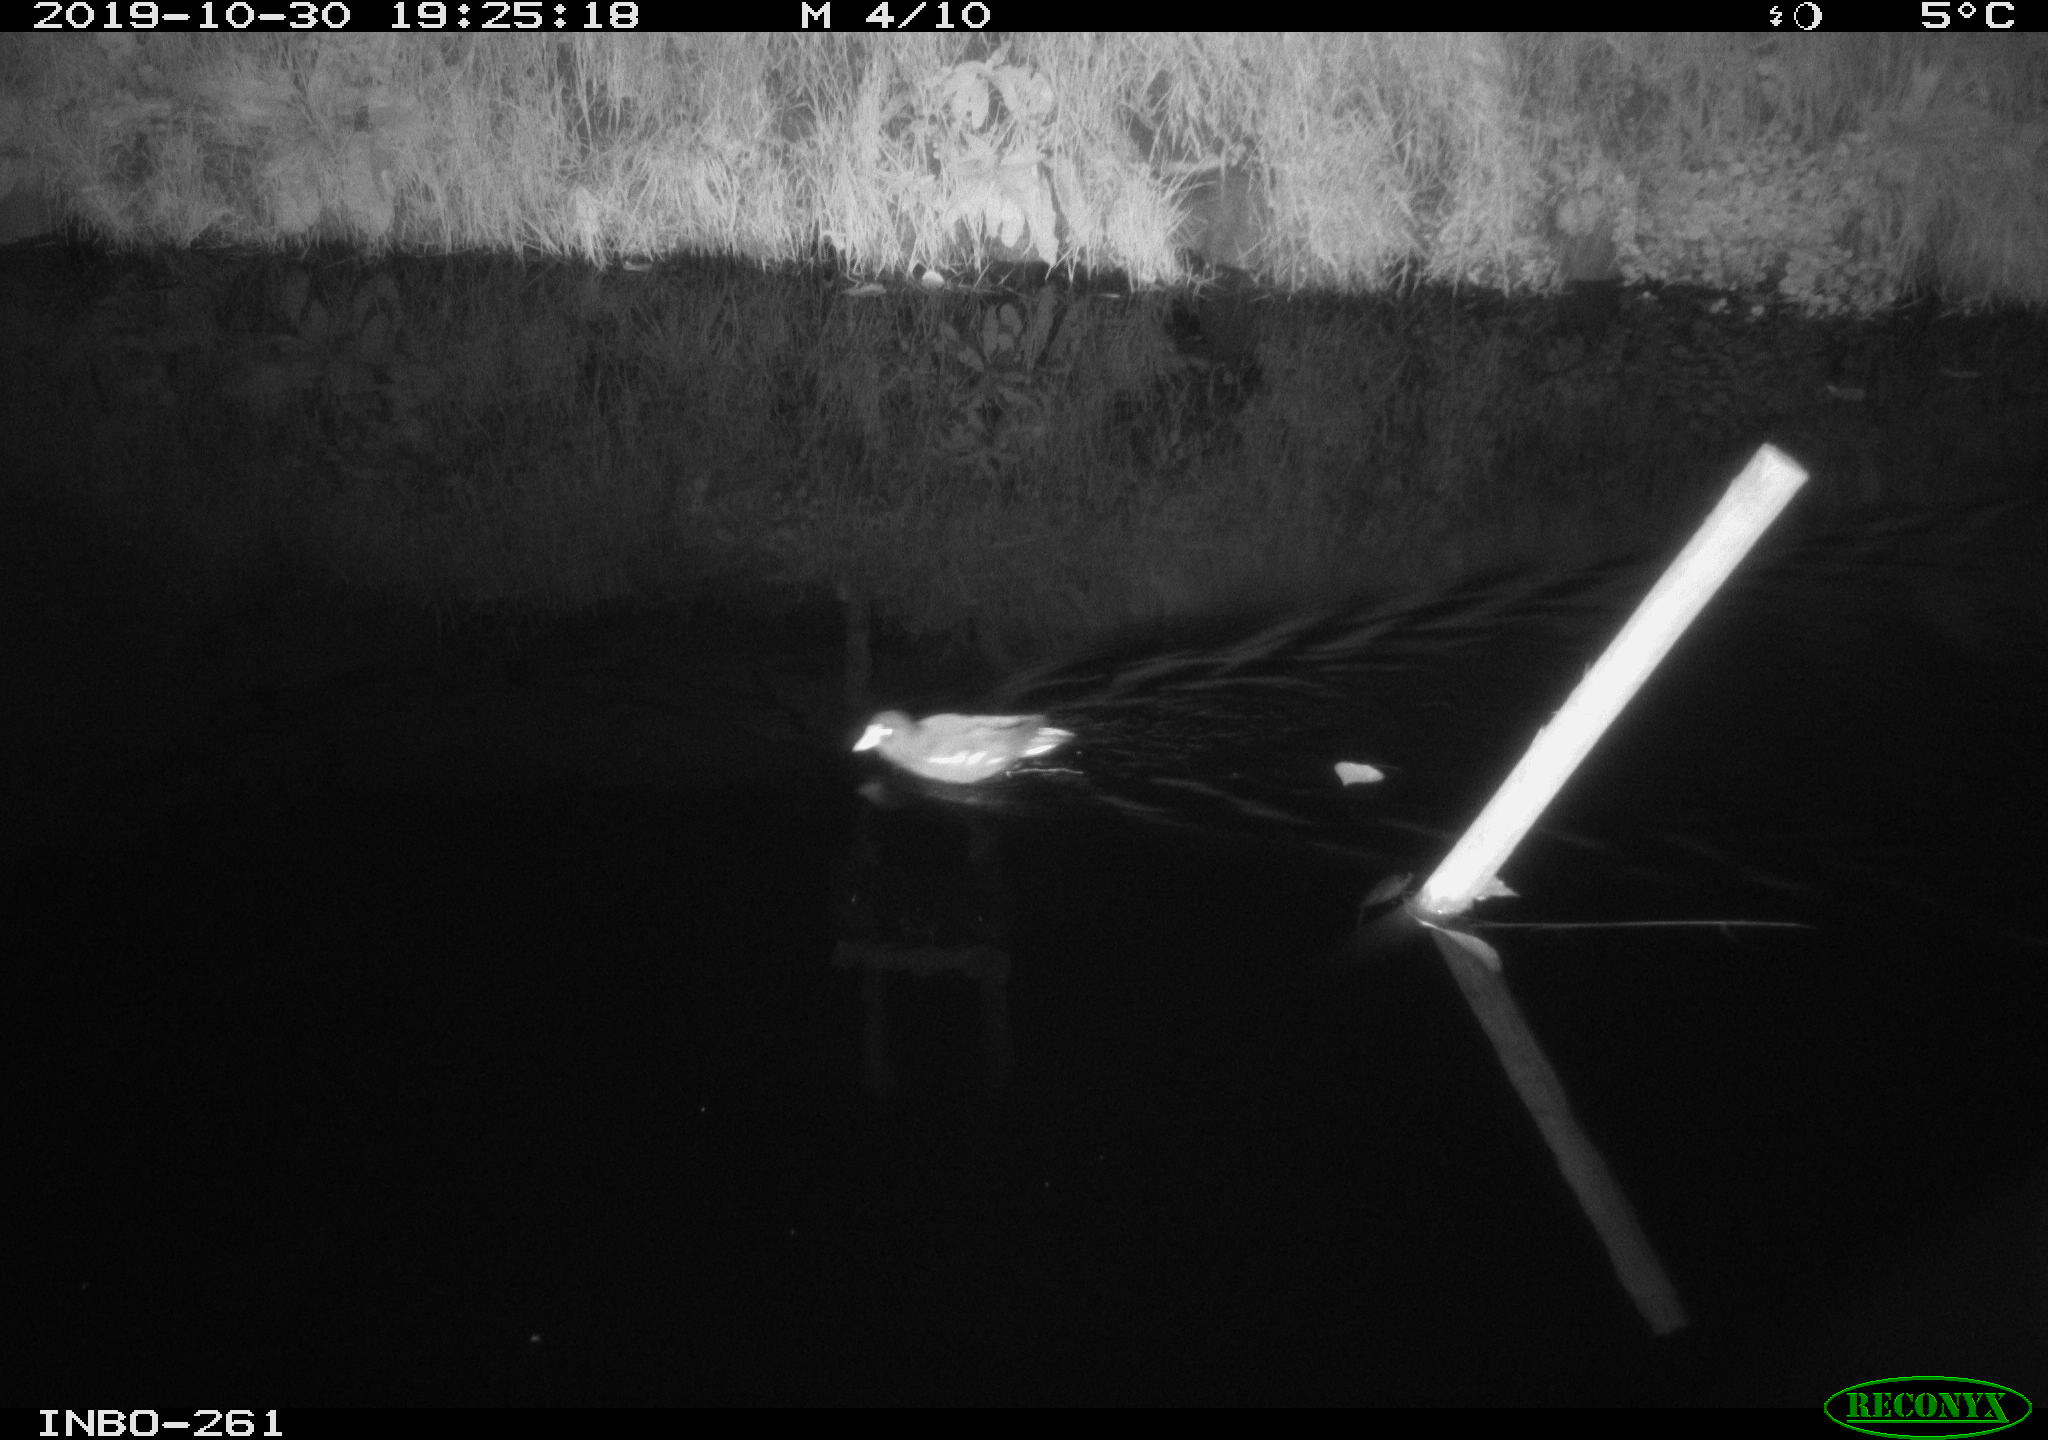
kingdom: Animalia
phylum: Chordata
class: Aves
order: Gruiformes
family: Rallidae
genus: Gallinula
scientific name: Gallinula chloropus
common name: Common moorhen
